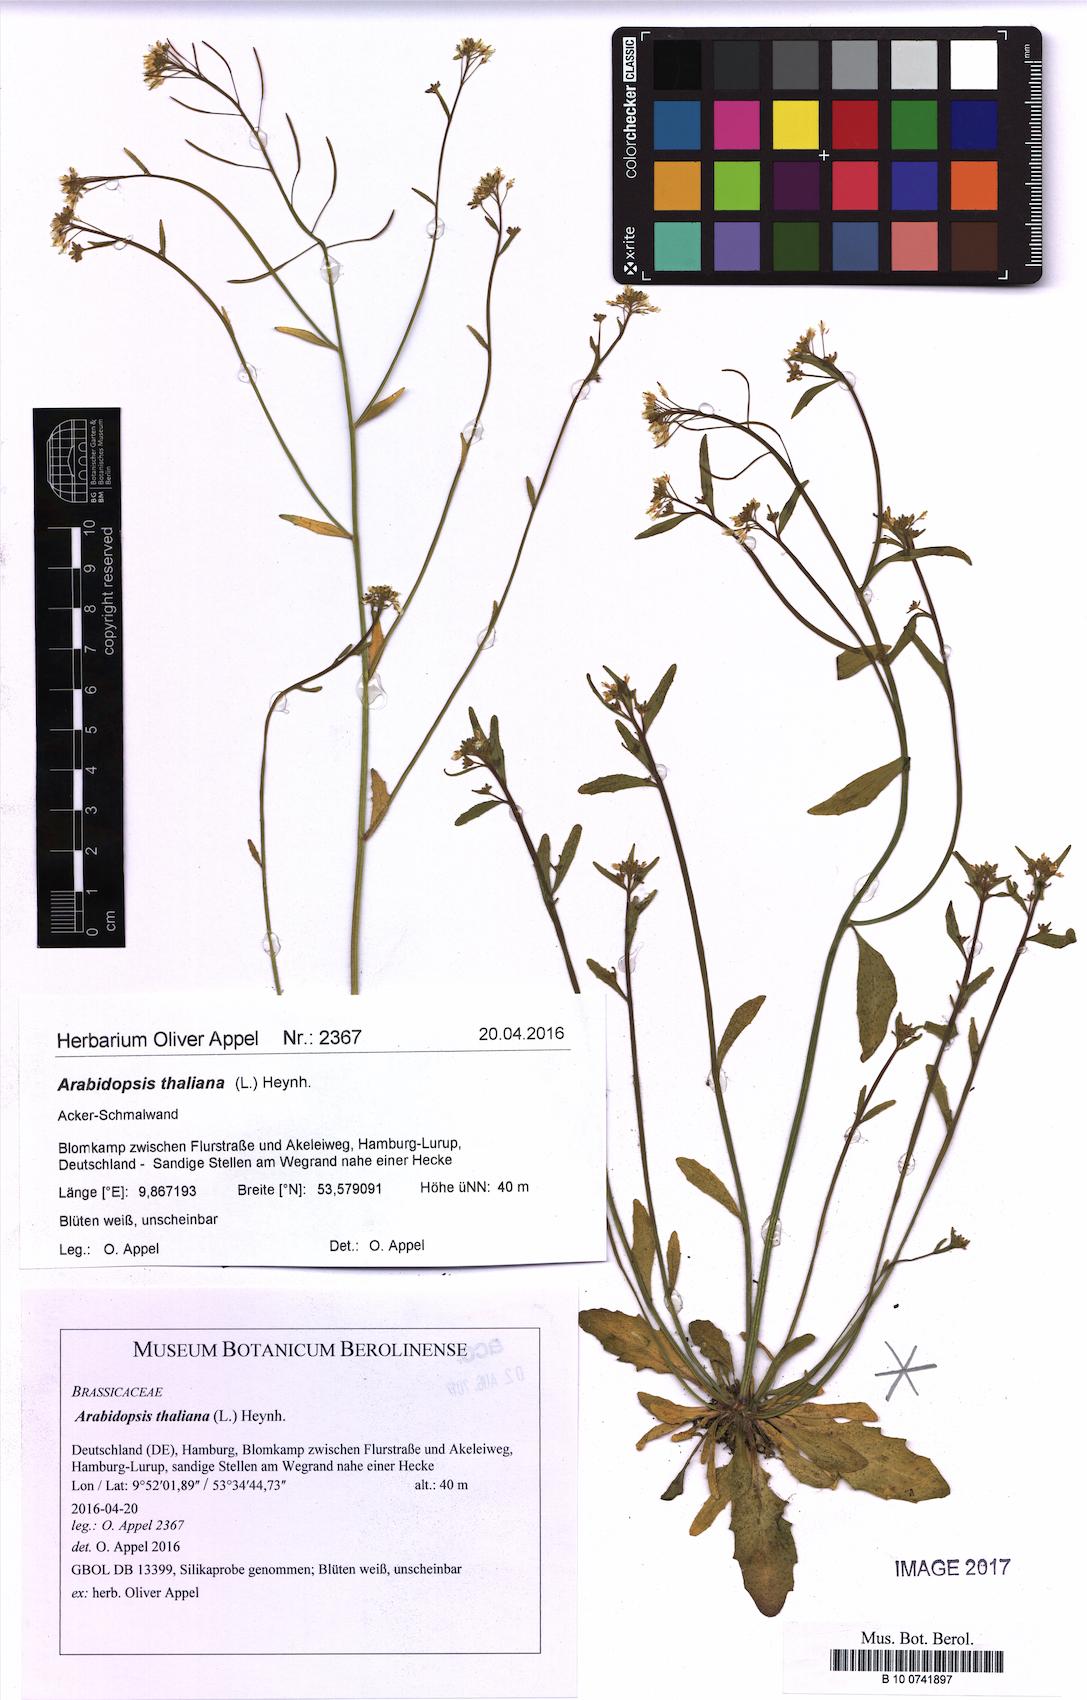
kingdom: Plantae
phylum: Tracheophyta
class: Magnoliopsida
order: Brassicales
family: Brassicaceae
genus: Arabidopsis
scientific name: Arabidopsis thaliana
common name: Thale cress
